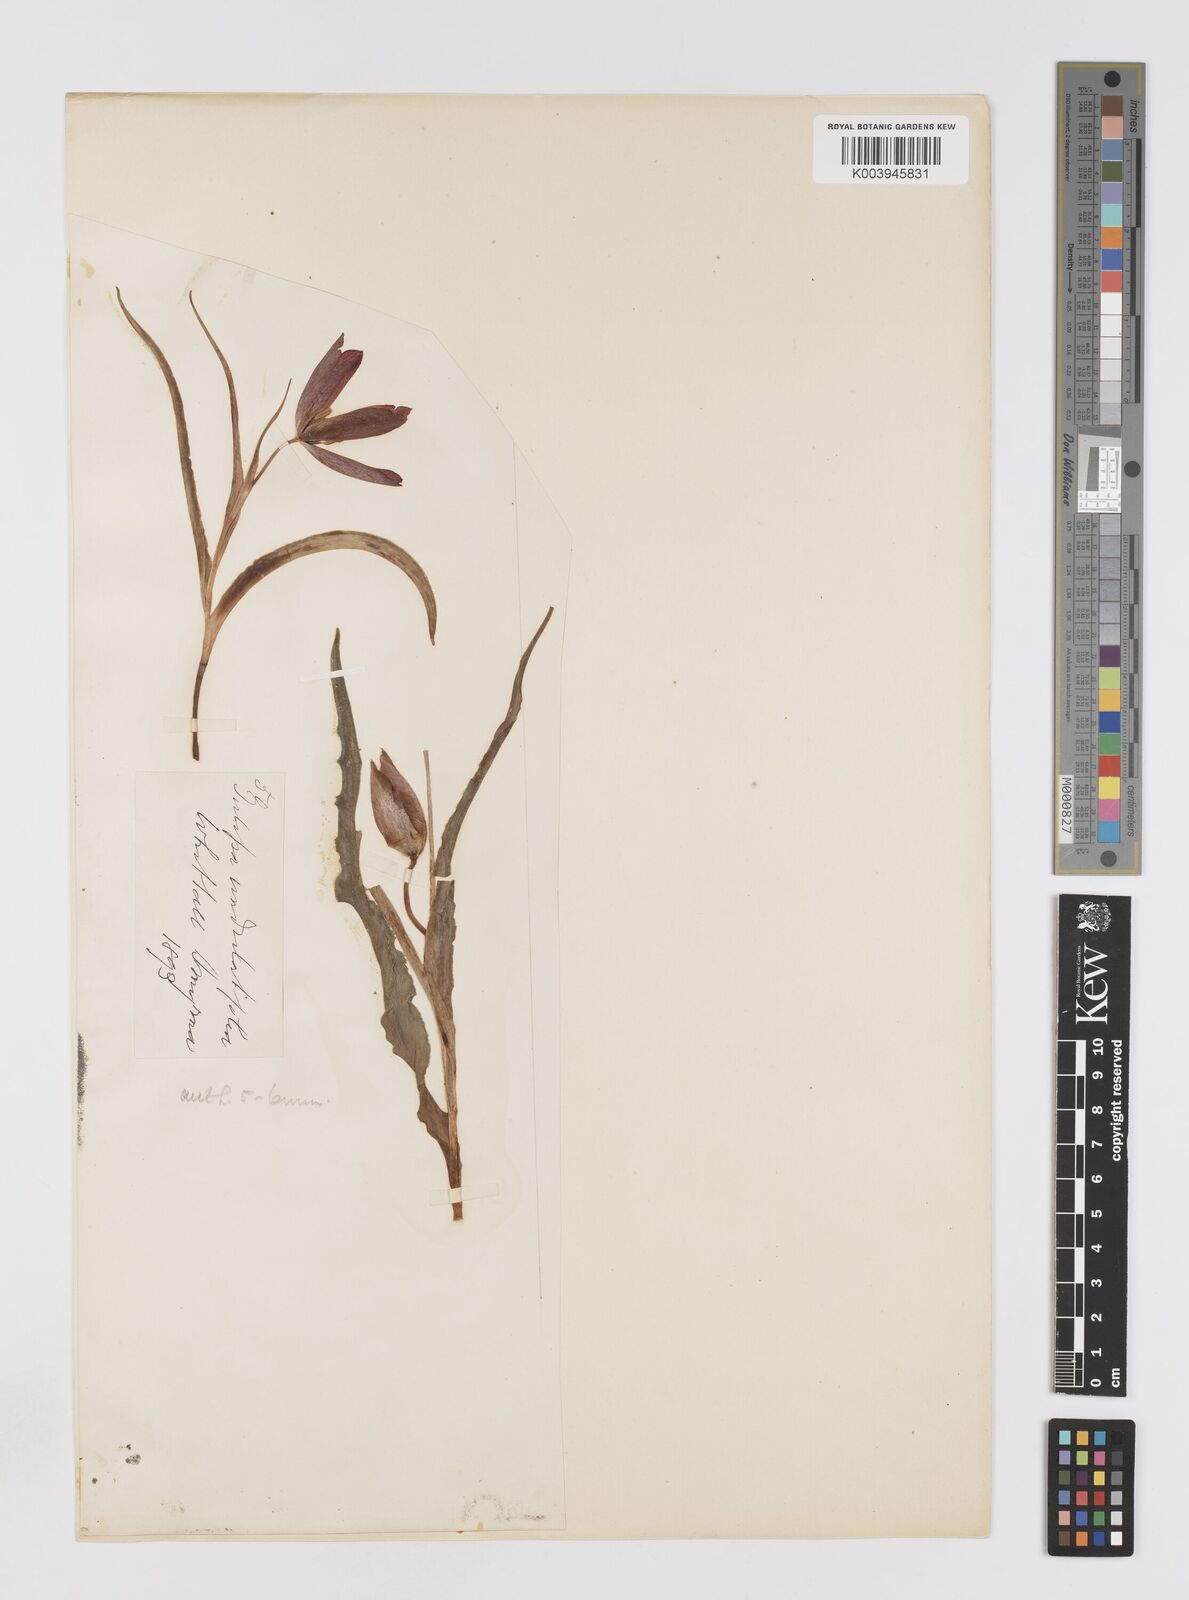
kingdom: Plantae
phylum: Tracheophyta
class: Liliopsida
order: Liliales
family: Liliaceae
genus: Tulipa
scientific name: Tulipa agenensis
